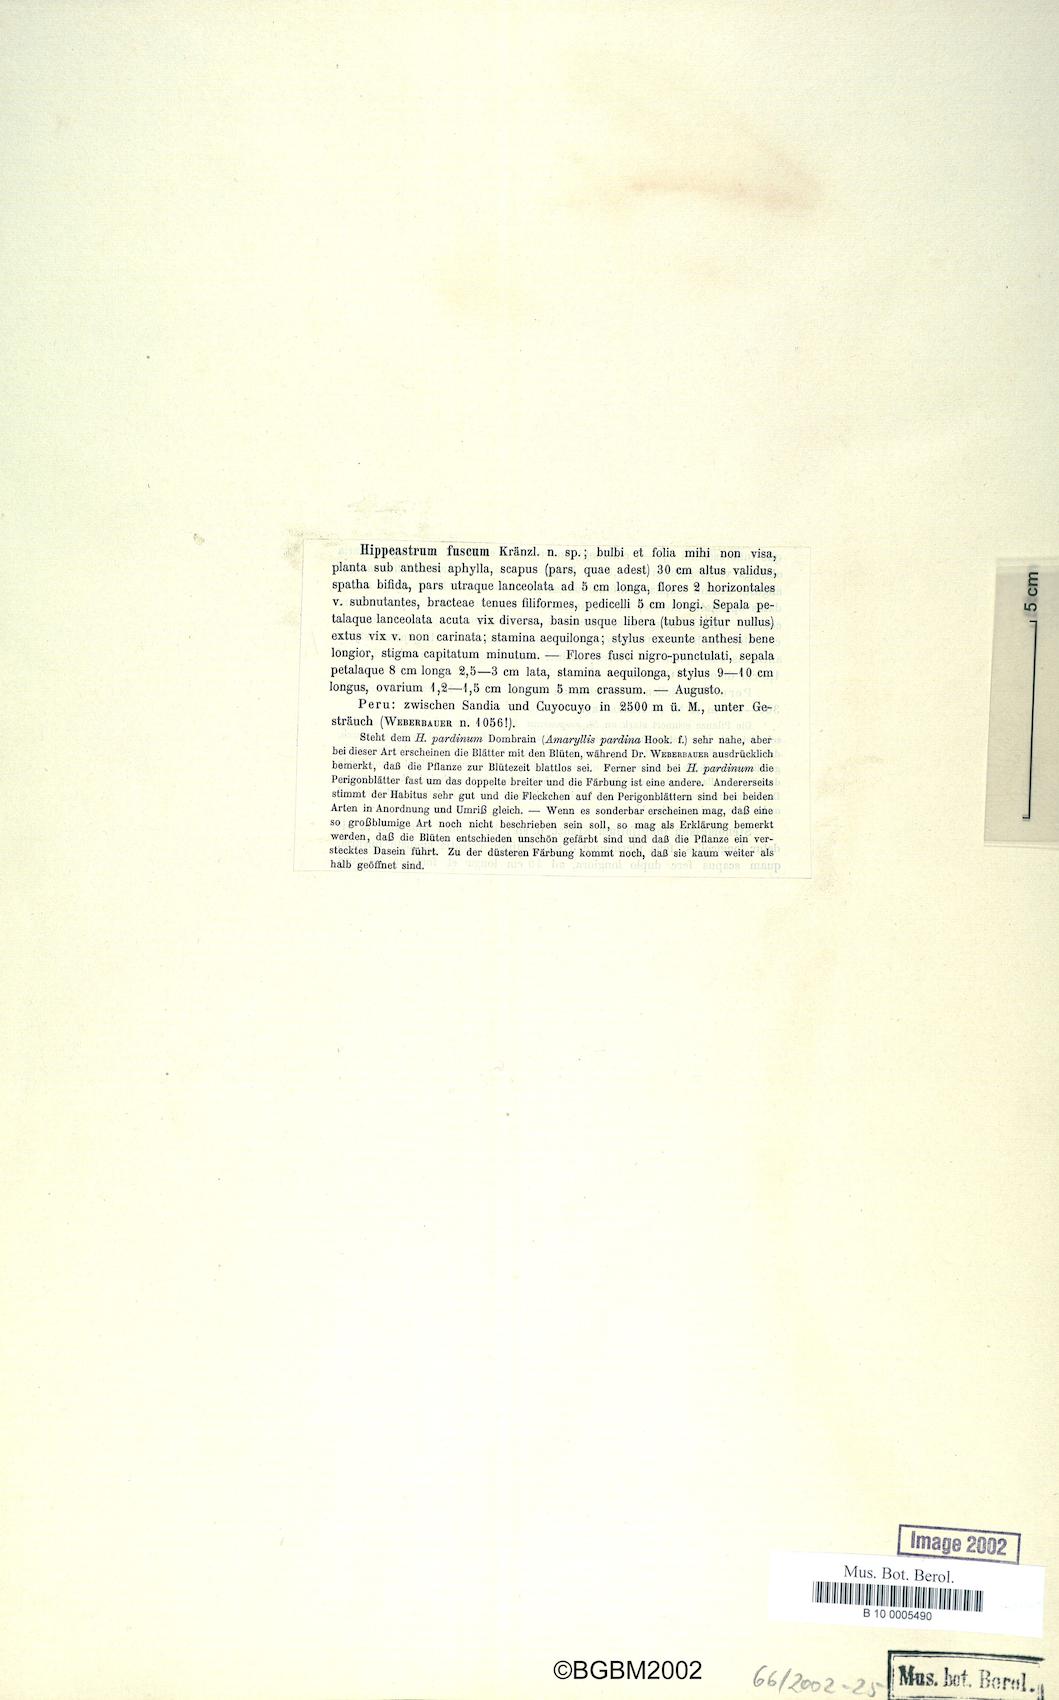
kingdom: Plantae
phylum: Tracheophyta
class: Liliopsida
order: Asparagales
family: Amaryllidaceae
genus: Hippeastrum
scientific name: Hippeastrum fuscum
